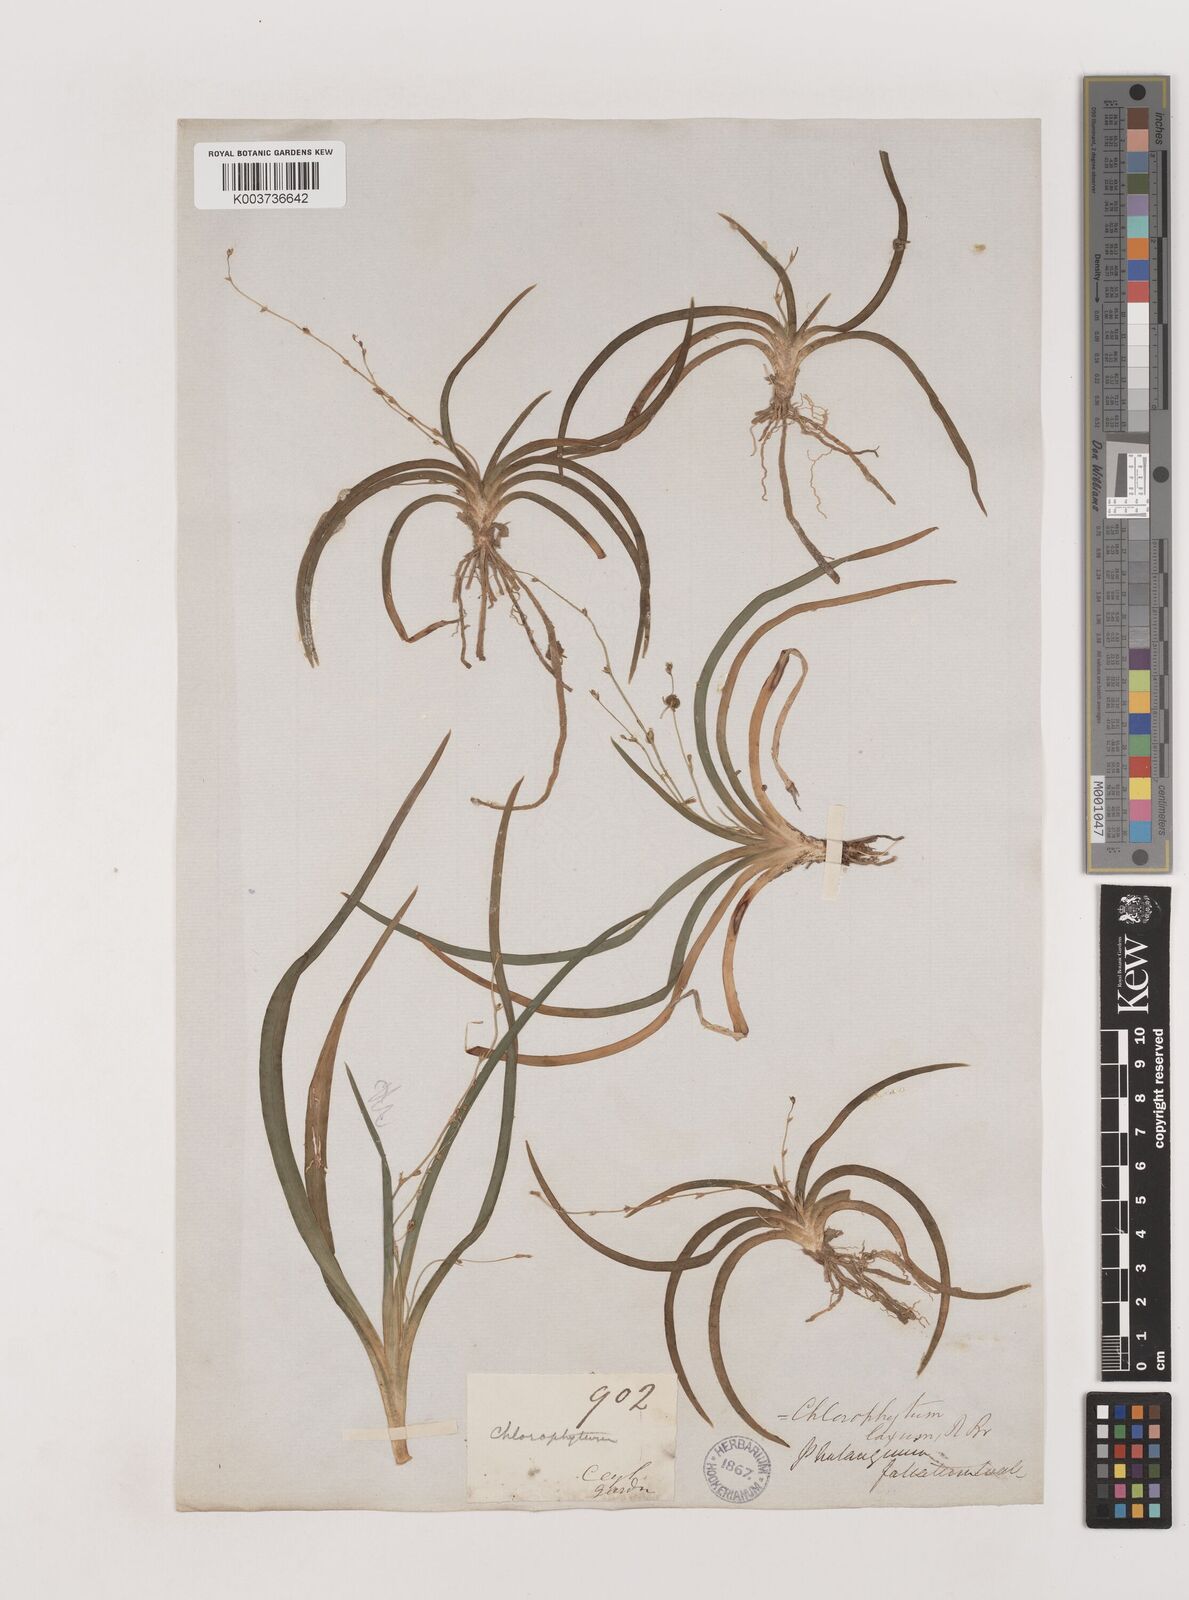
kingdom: Plantae
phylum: Tracheophyta
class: Liliopsida
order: Asparagales
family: Asparagaceae
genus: Chlorophytum
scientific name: Chlorophytum laxum
